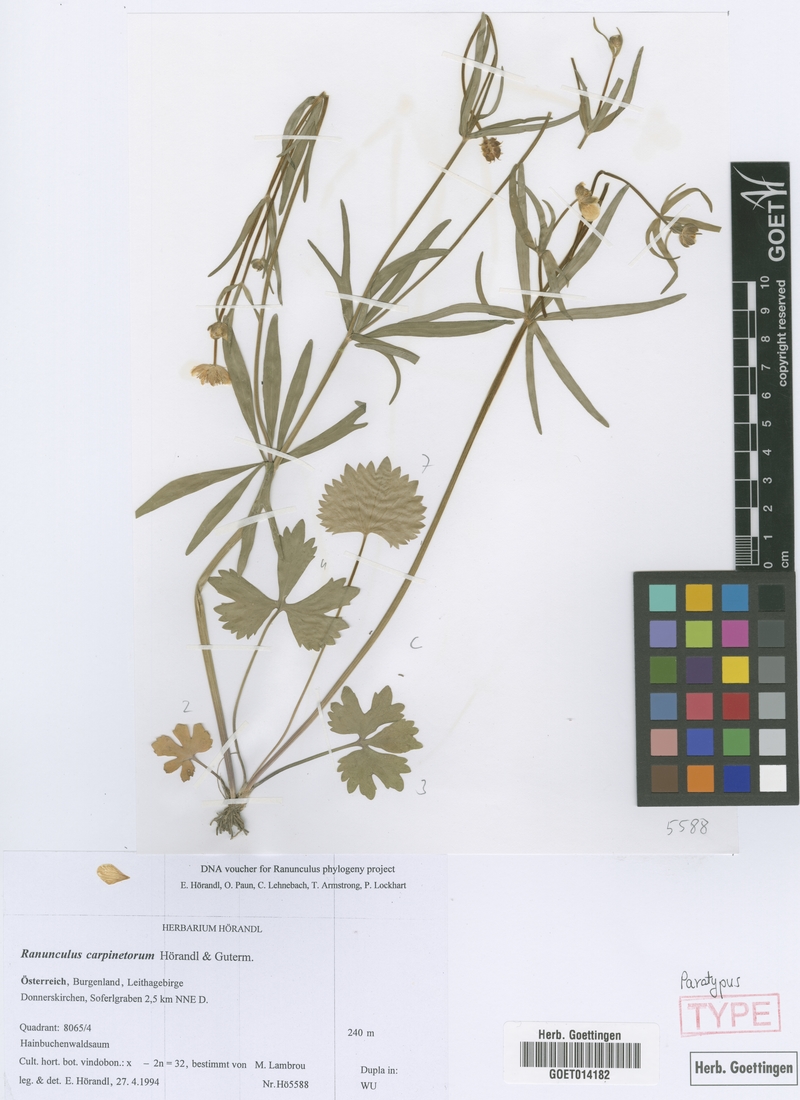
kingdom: Plantae
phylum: Tracheophyta
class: Magnoliopsida
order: Ranunculales
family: Ranunculaceae
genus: Ranunculus
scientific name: Ranunculus carpinetorum
